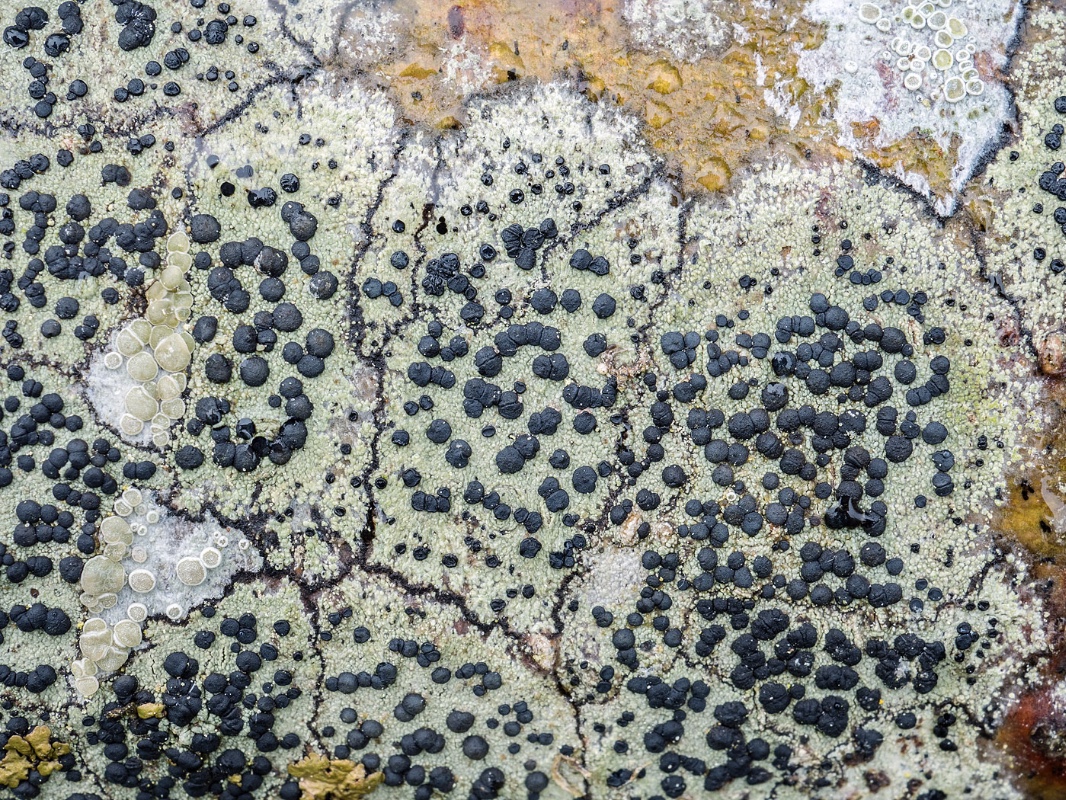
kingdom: Fungi
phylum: Ascomycota
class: Lecanoromycetes
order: Lecanorales
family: Lecanoraceae
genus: Lecidella
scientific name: Lecidella elaeochroma
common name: grågrøn skivelav
